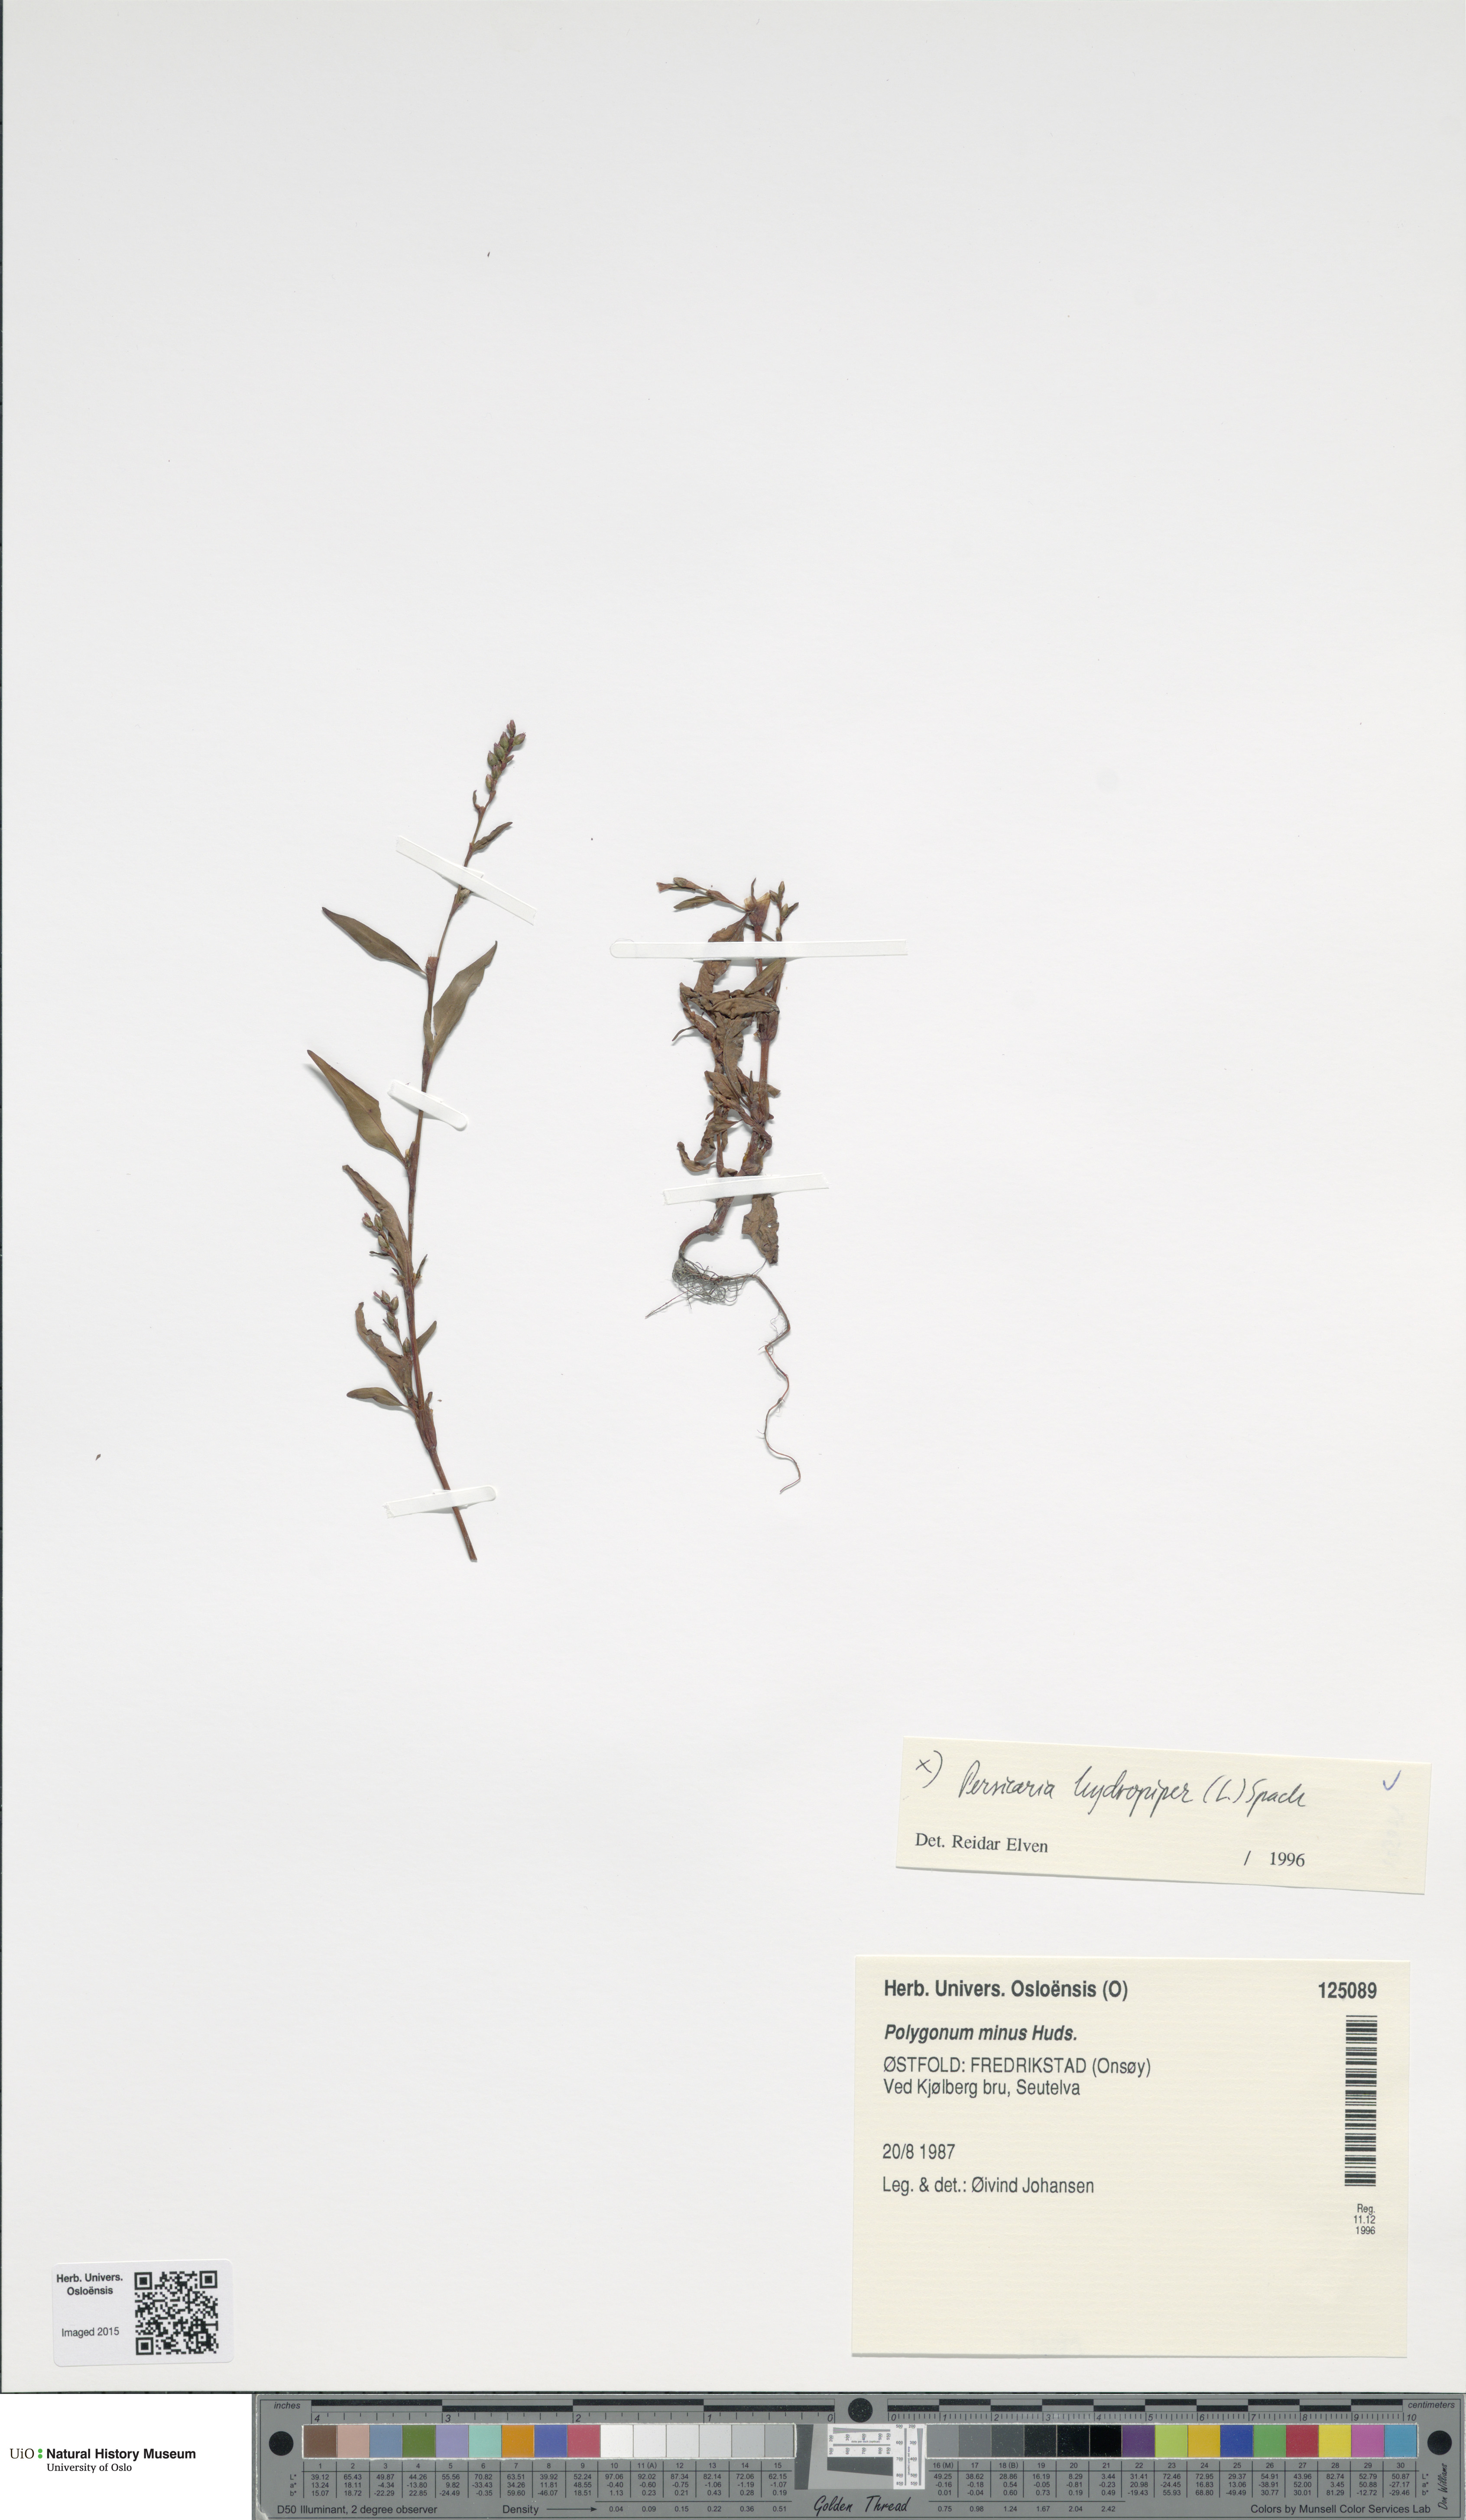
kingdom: Plantae
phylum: Tracheophyta
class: Magnoliopsida
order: Caryophyllales
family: Polygonaceae
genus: Persicaria
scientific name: Persicaria hydropiper
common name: Water-pepper
